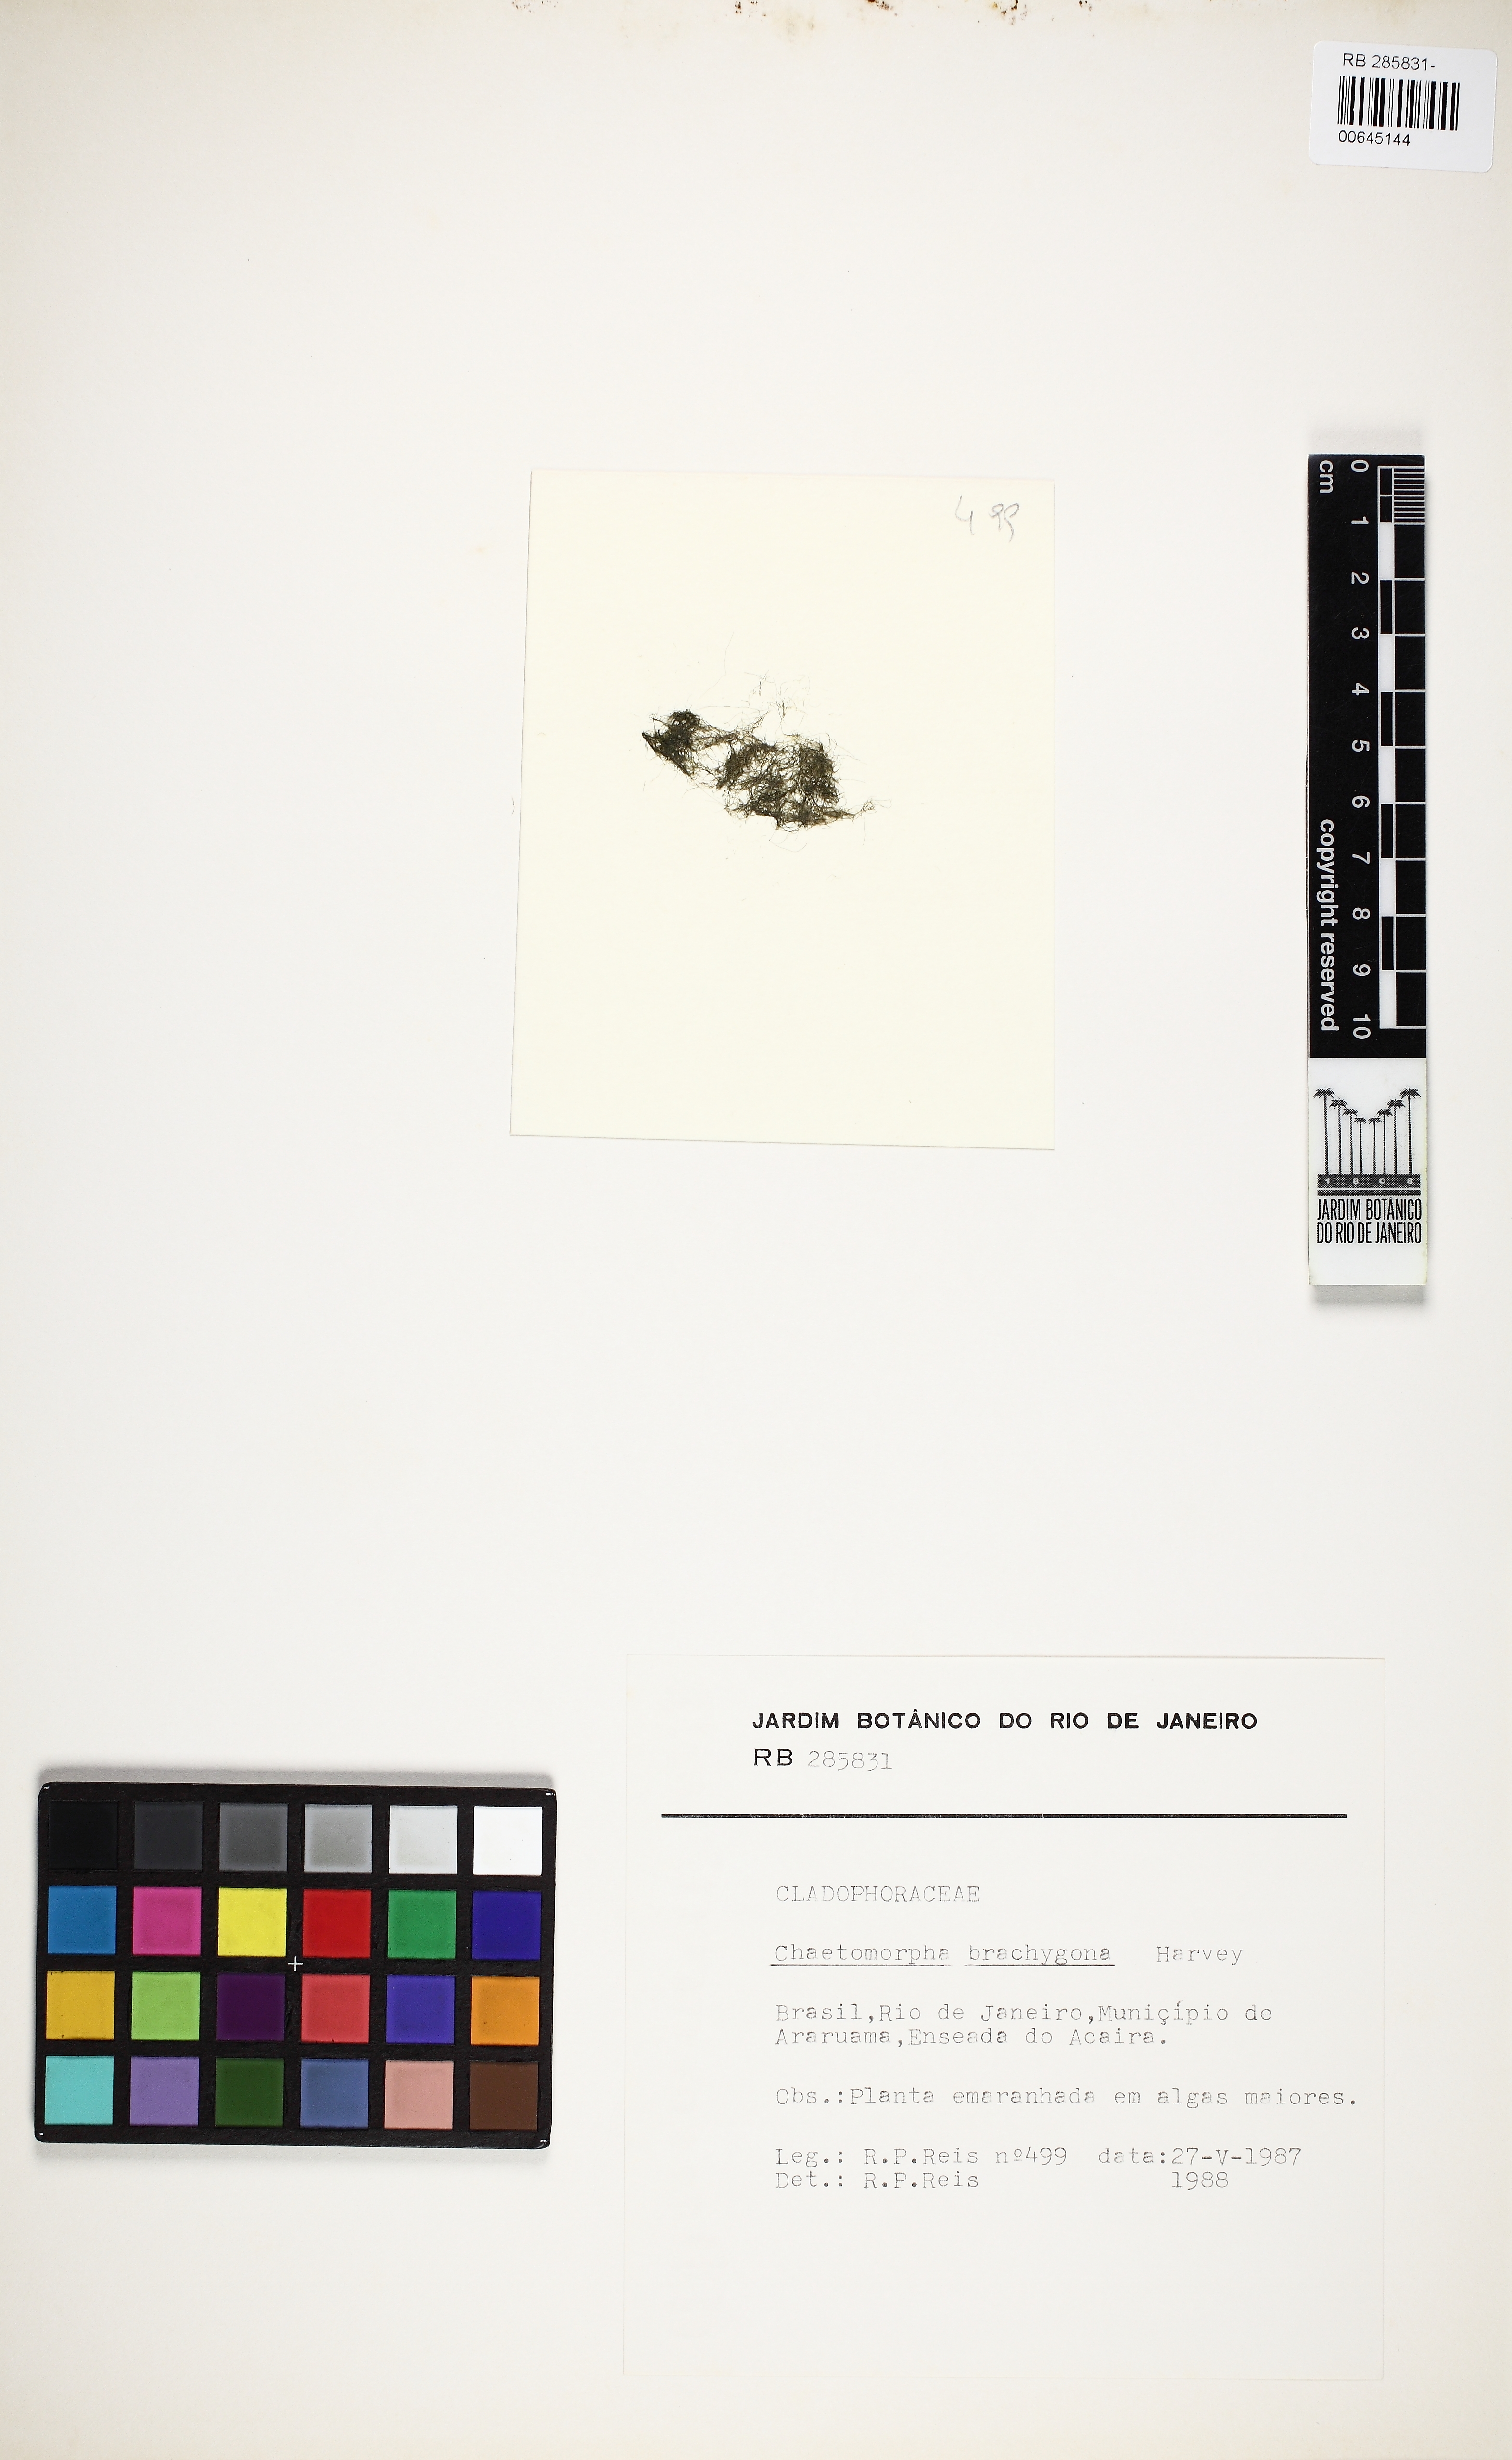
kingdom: Plantae
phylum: Chlorophyta
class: Ulvophyceae
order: Cladophorales
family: Cladophoraceae
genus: Chaetomorpha
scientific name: Chaetomorpha brachygona
